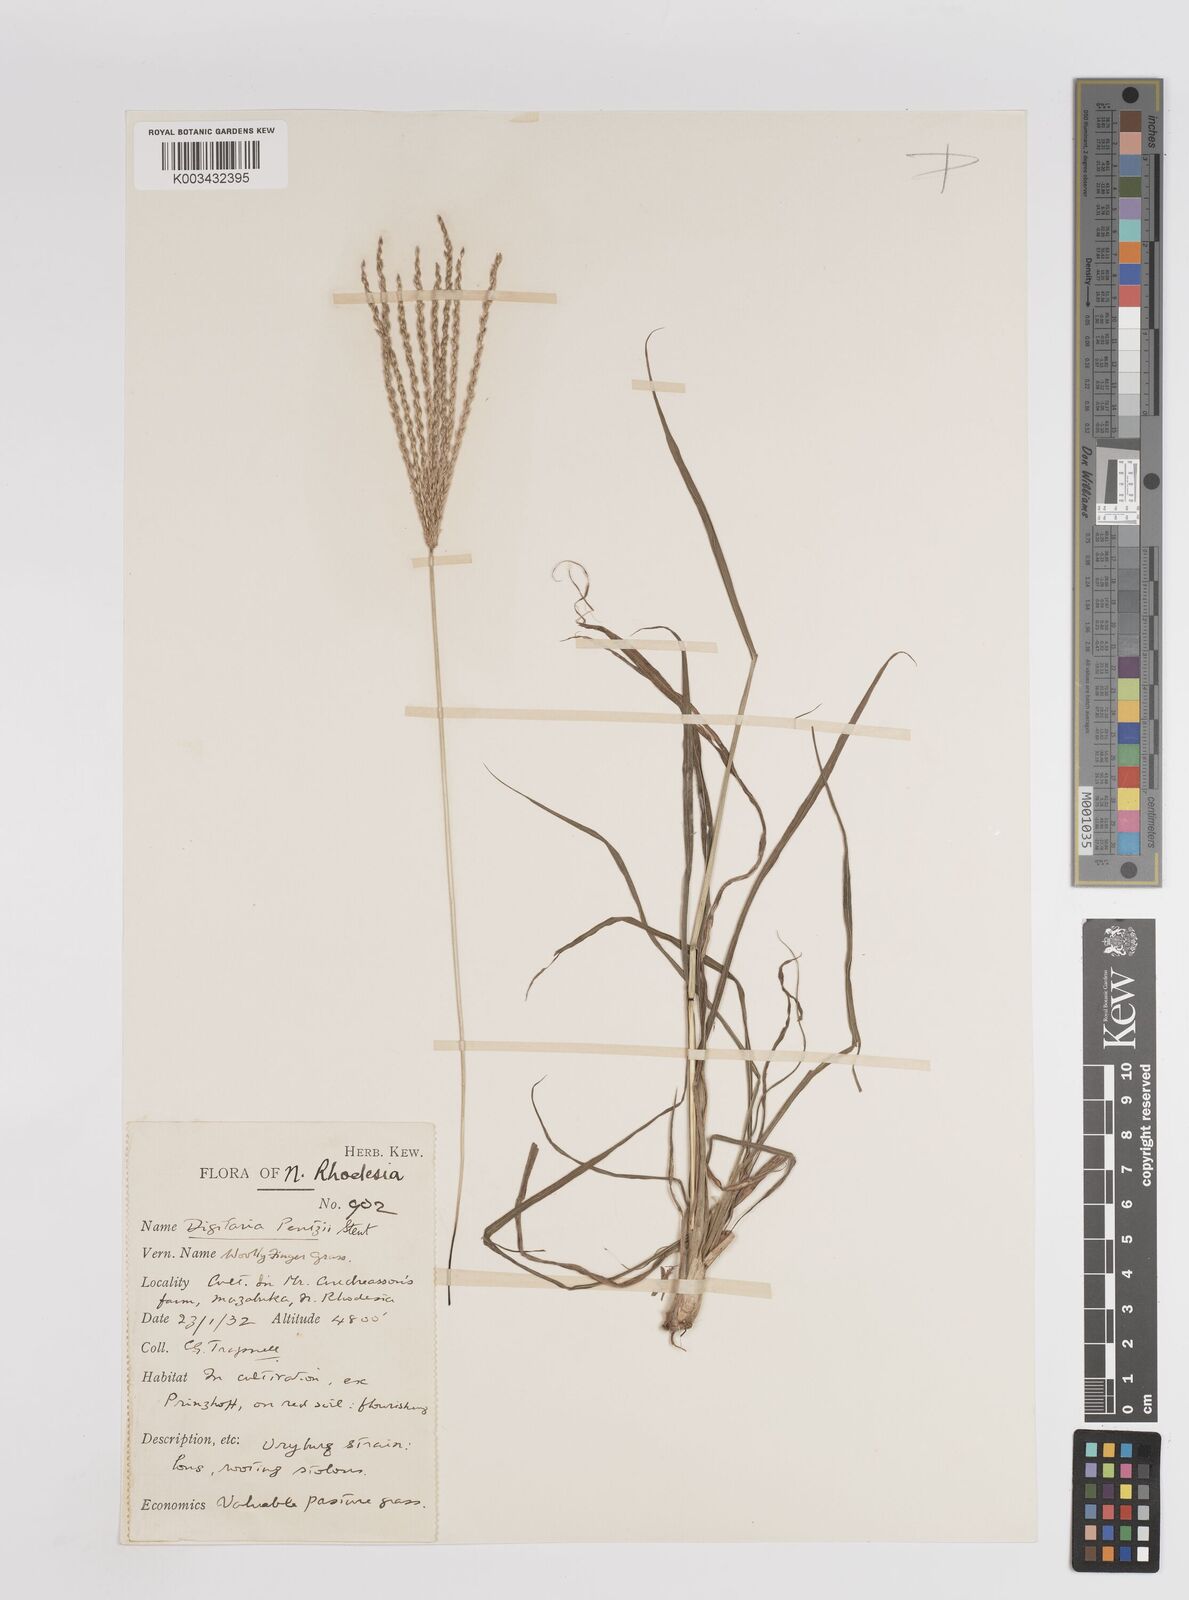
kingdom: Plantae
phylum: Tracheophyta
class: Liliopsida
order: Poales
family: Poaceae
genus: Digitaria
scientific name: Digitaria eriantha
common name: Digitgrass
